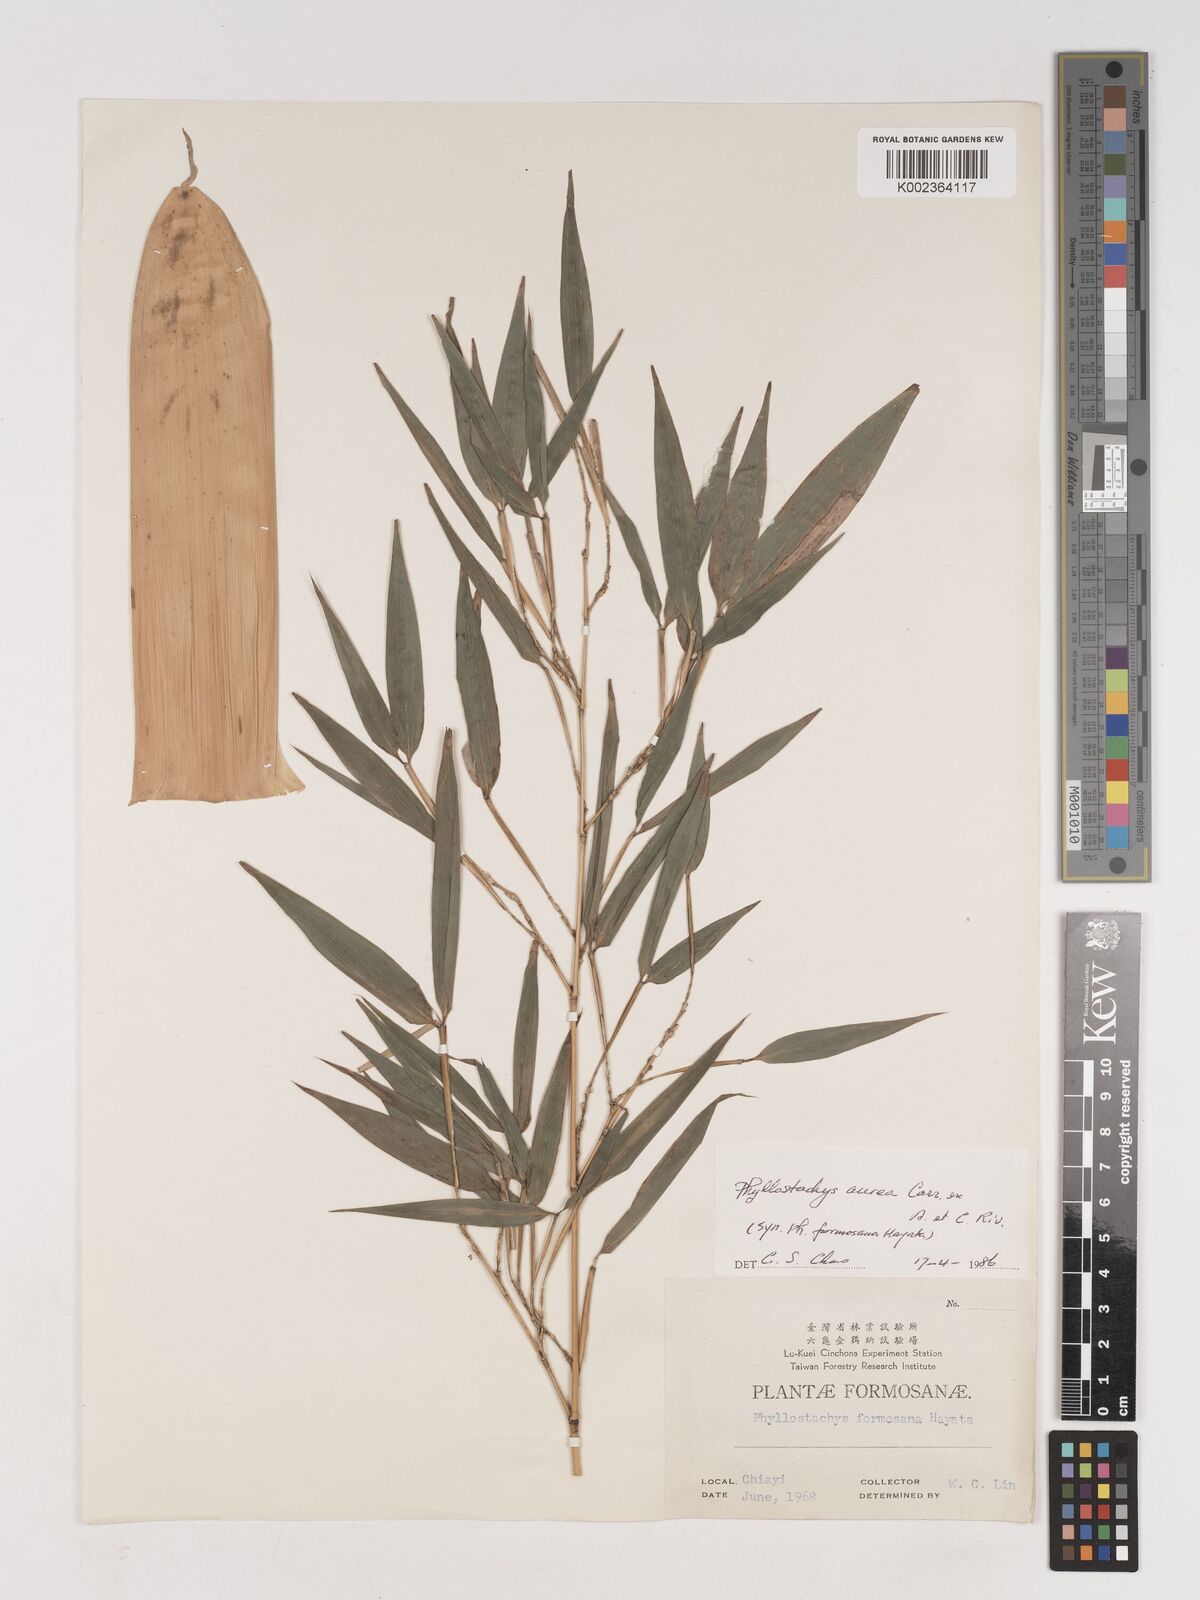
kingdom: Plantae
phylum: Tracheophyta
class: Liliopsida
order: Poales
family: Poaceae
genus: Phyllostachys
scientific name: Phyllostachys aurea
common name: Golden bamboo
